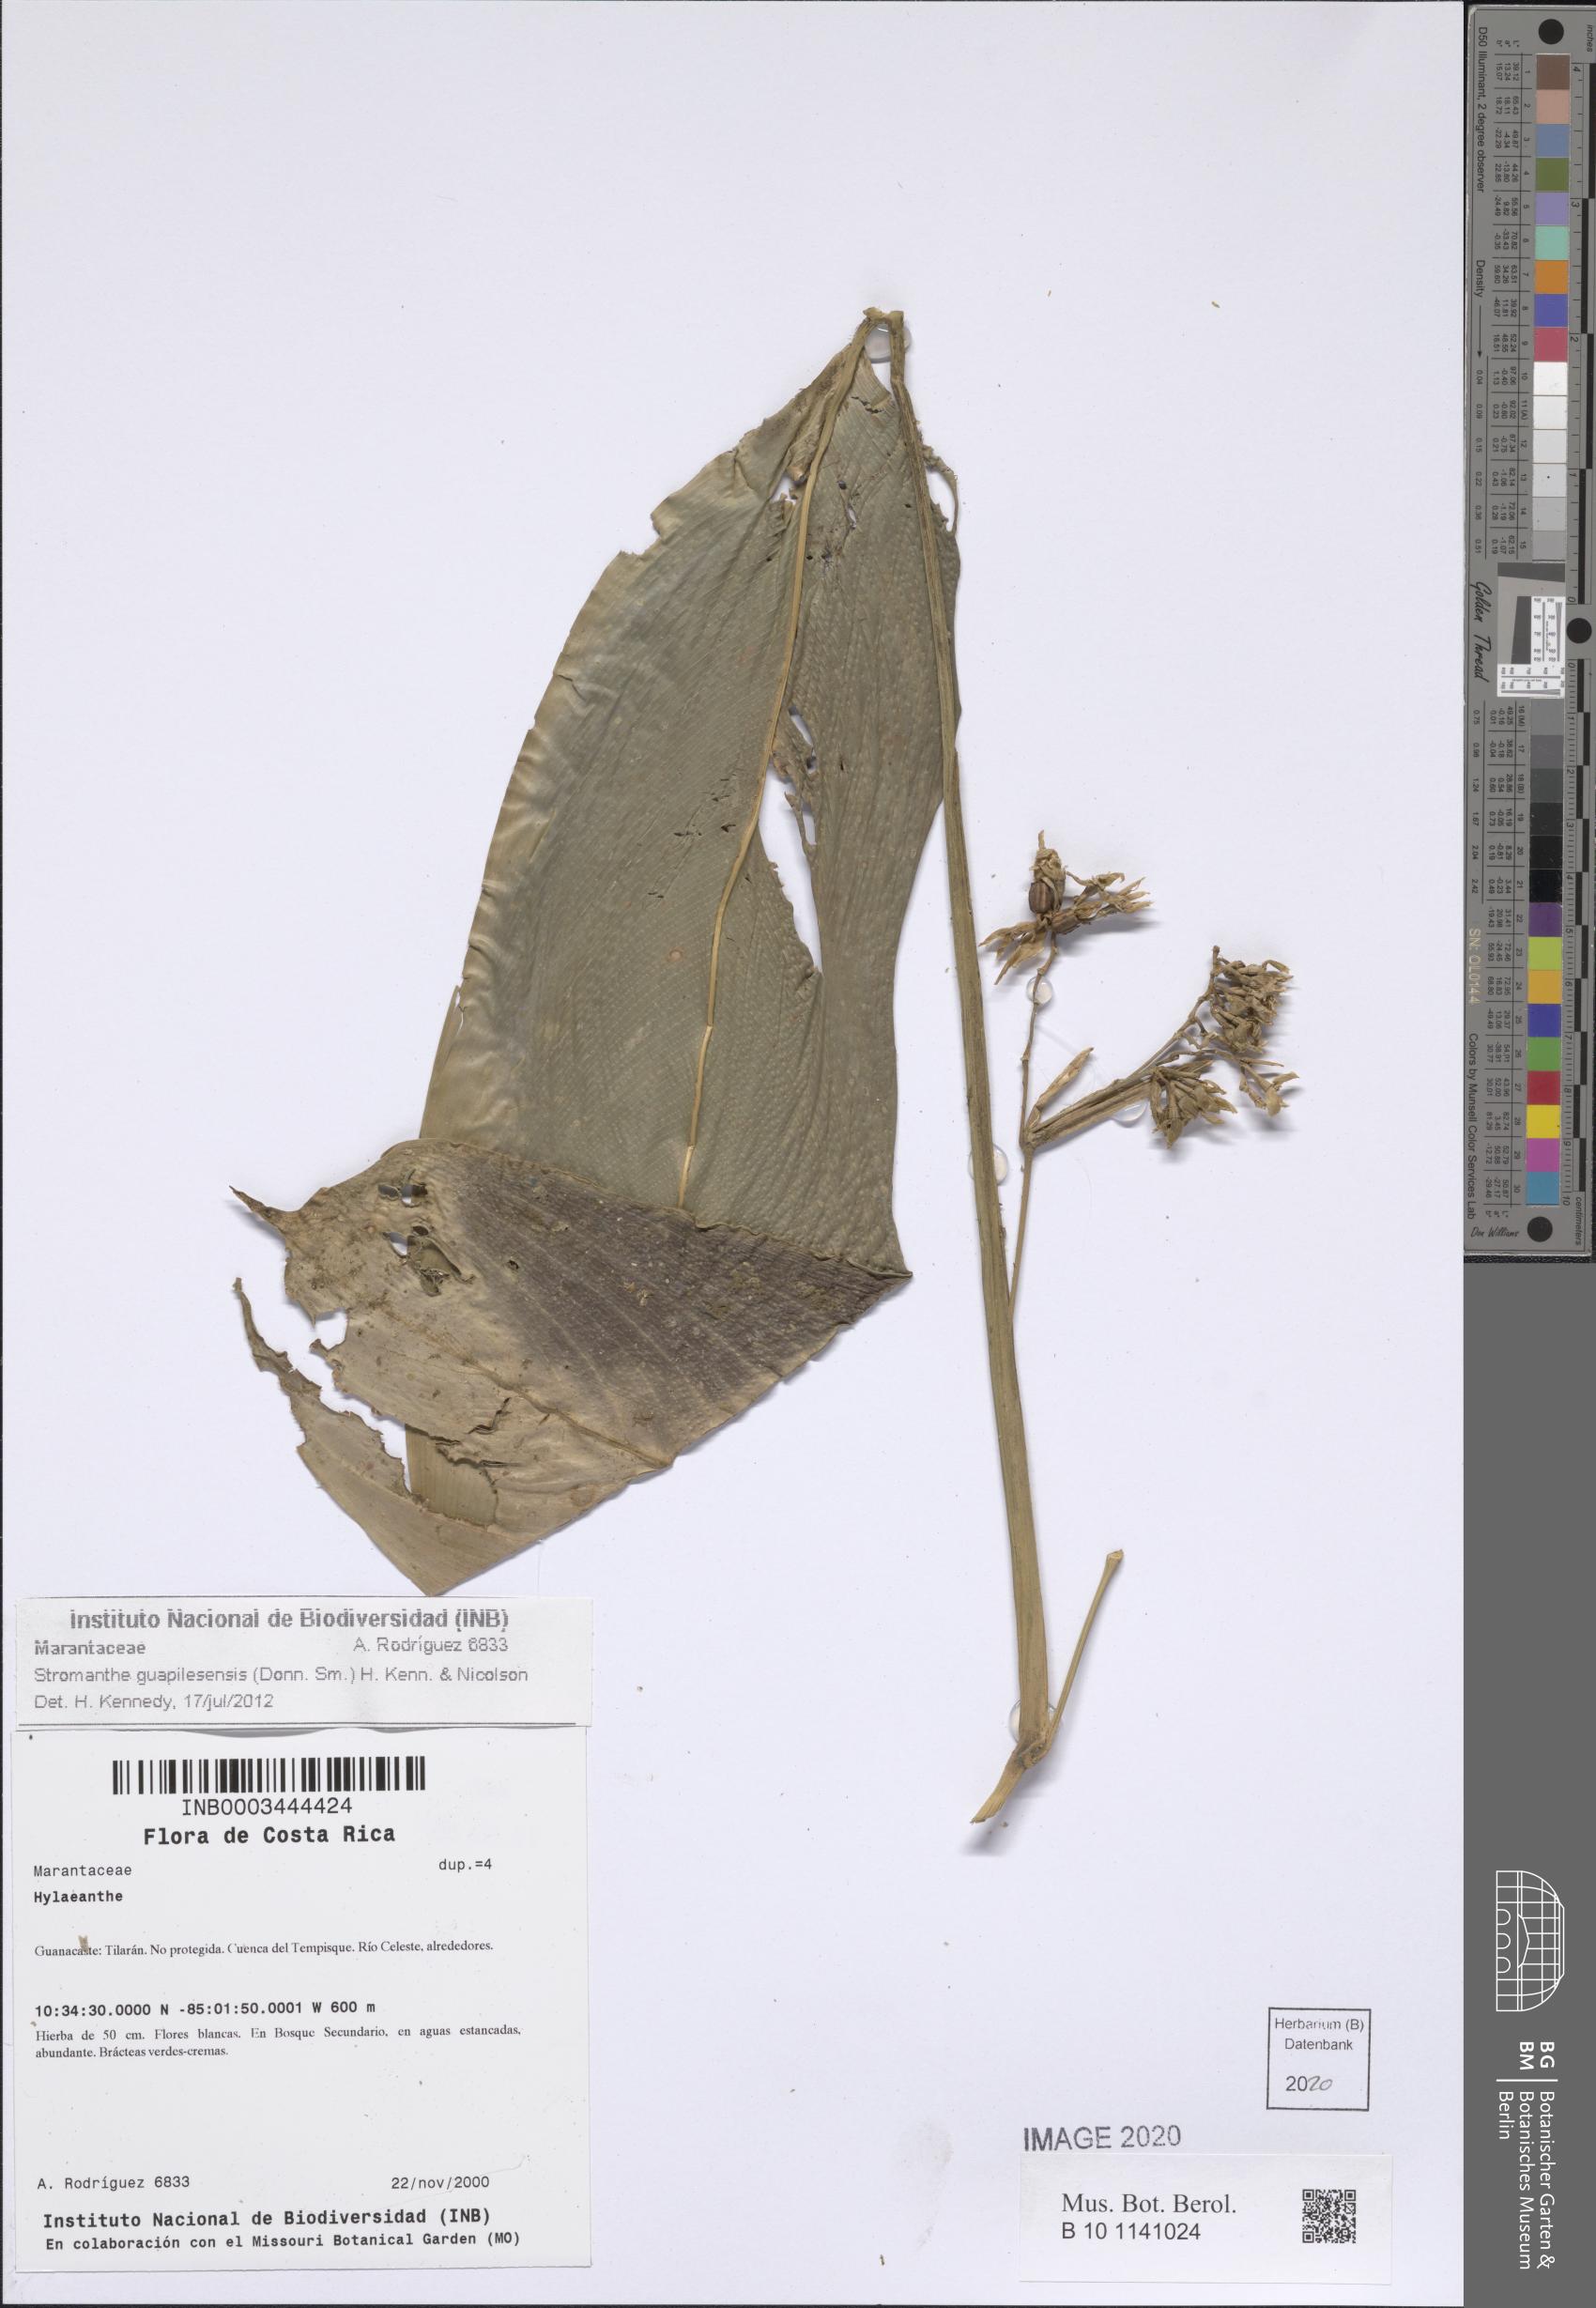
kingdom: Plantae
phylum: Tracheophyta
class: Liliopsida
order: Zingiberales
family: Marantaceae
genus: Stromanthe
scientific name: Stromanthe guapilesensis
